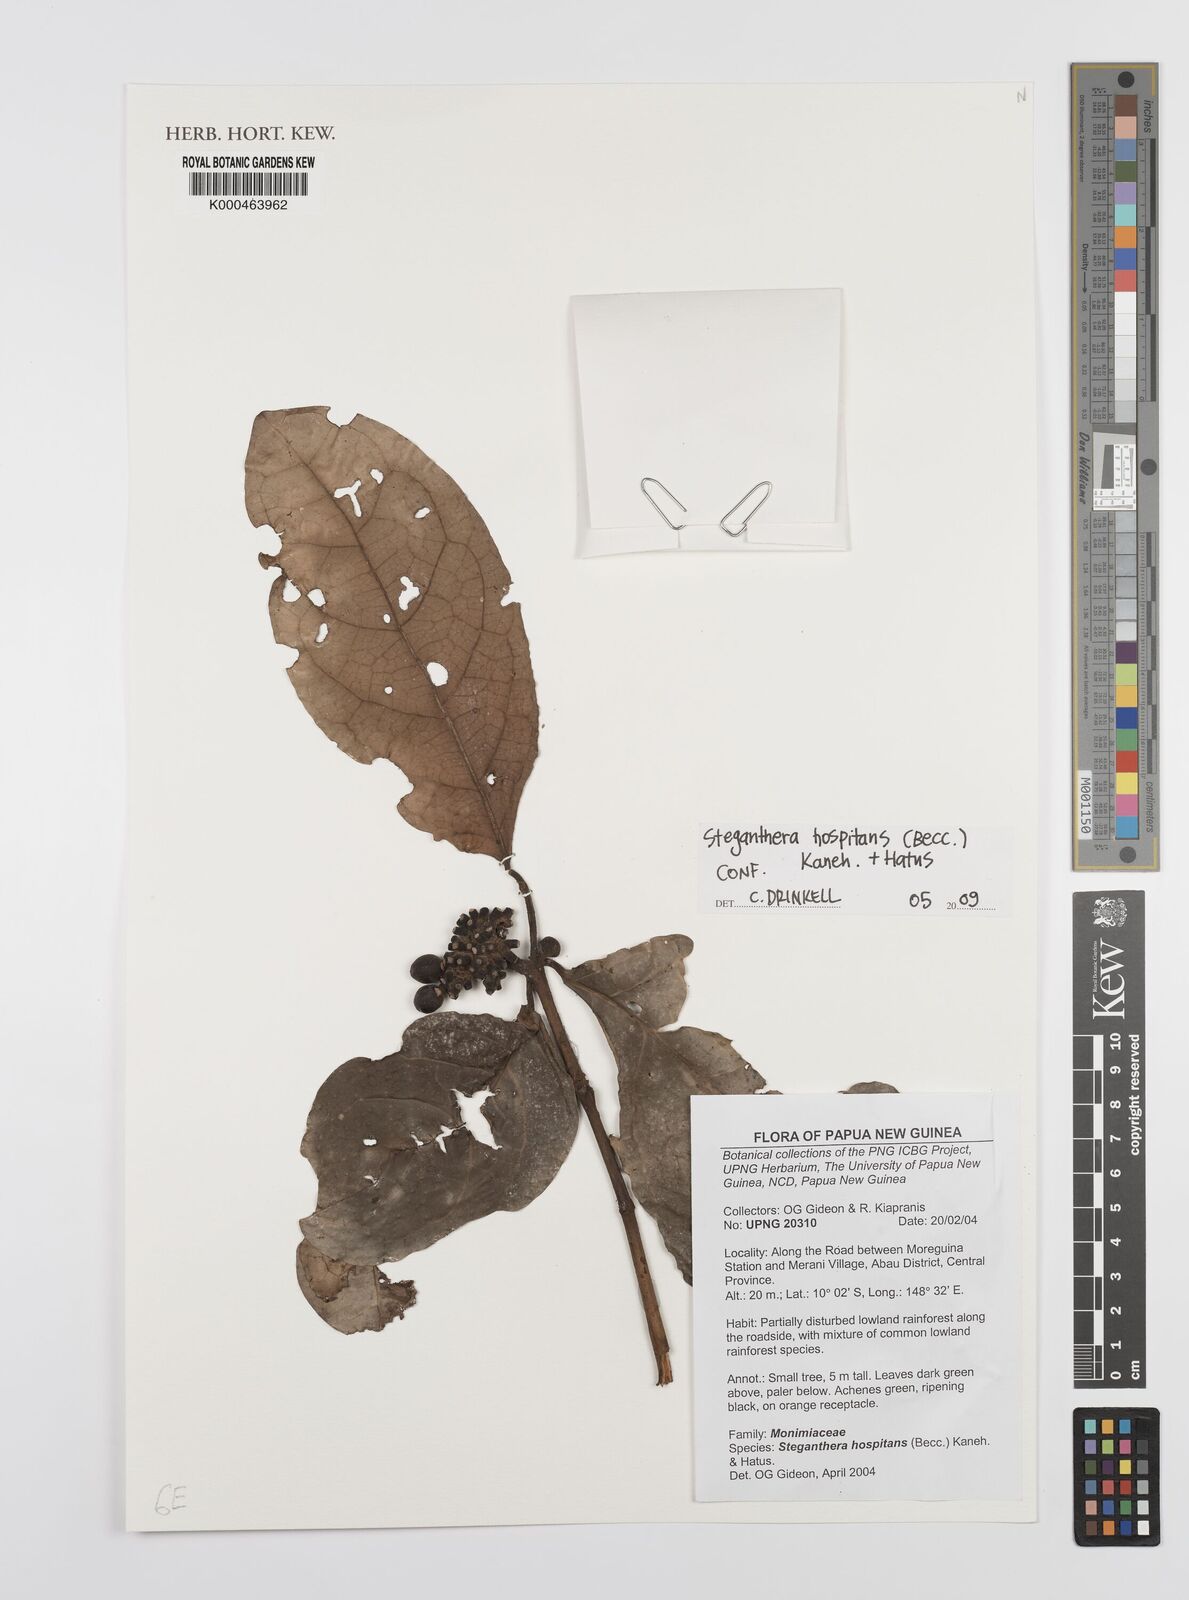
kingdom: Plantae
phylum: Tracheophyta
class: Magnoliopsida
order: Laurales
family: Monimiaceae
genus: Steganthera
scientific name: Steganthera hospitans
